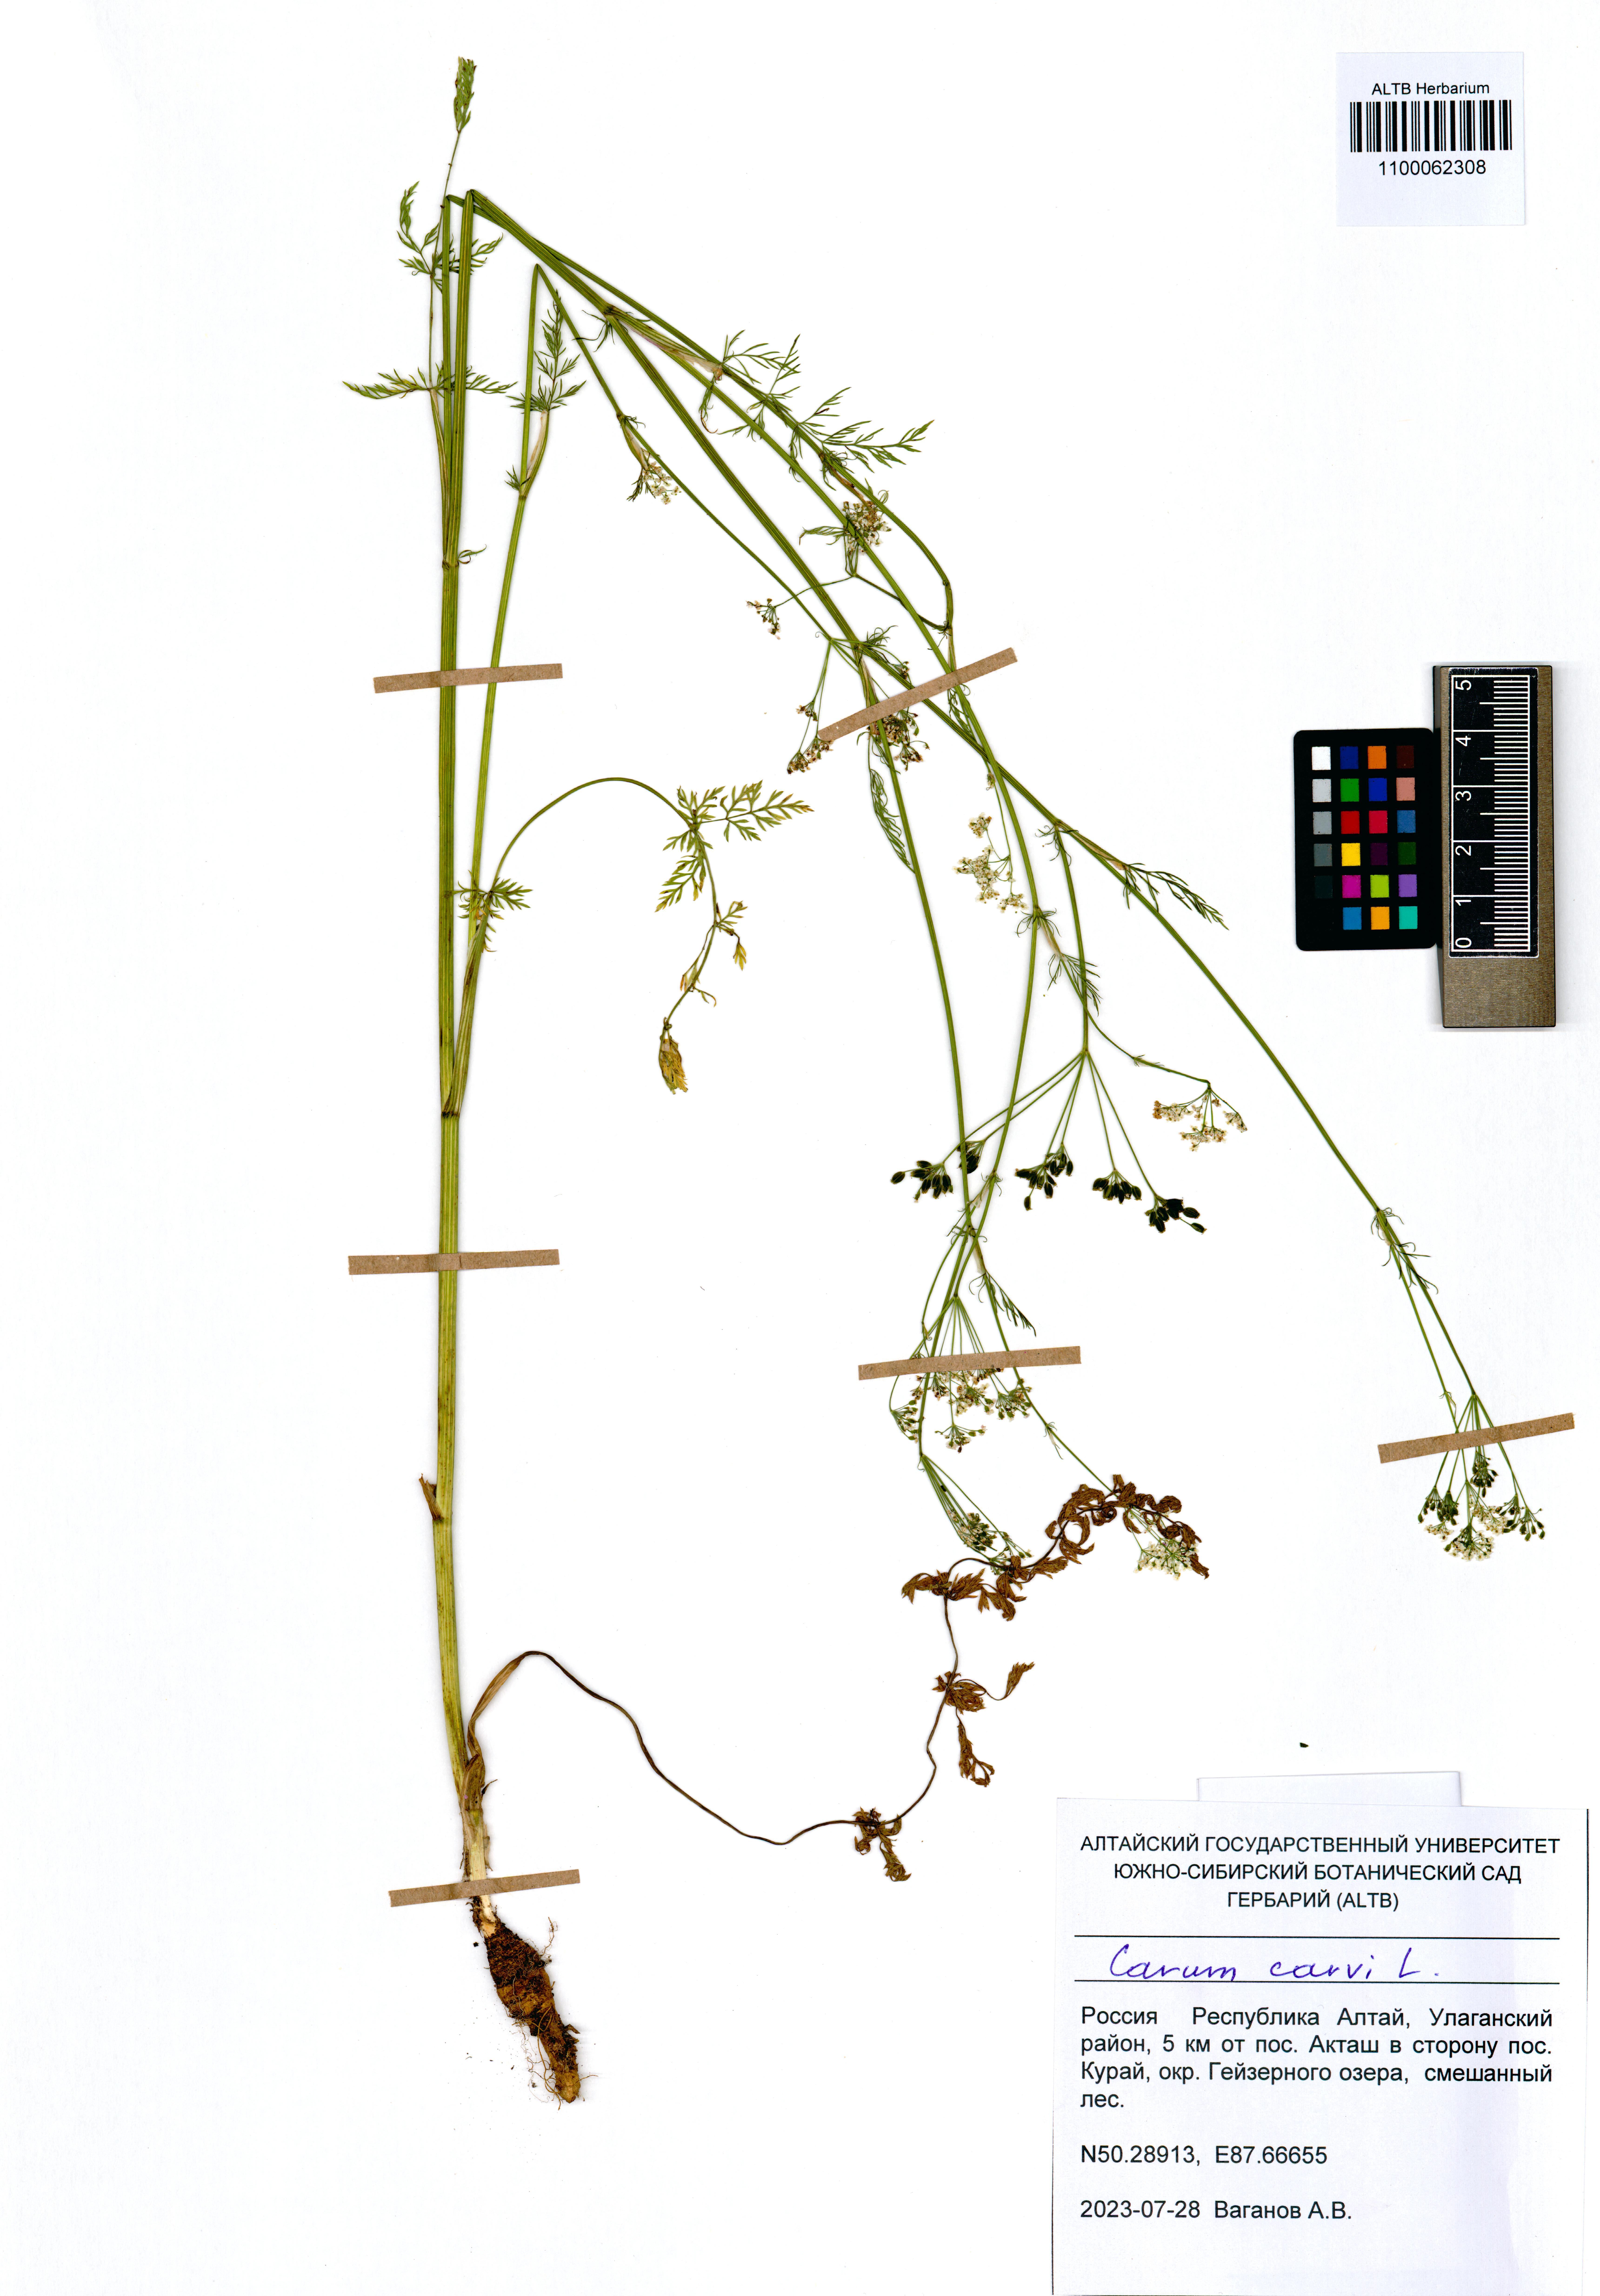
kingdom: Plantae
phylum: Tracheophyta
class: Magnoliopsida
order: Apiales
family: Apiaceae
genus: Carum
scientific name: Carum carvi
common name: Caraway
